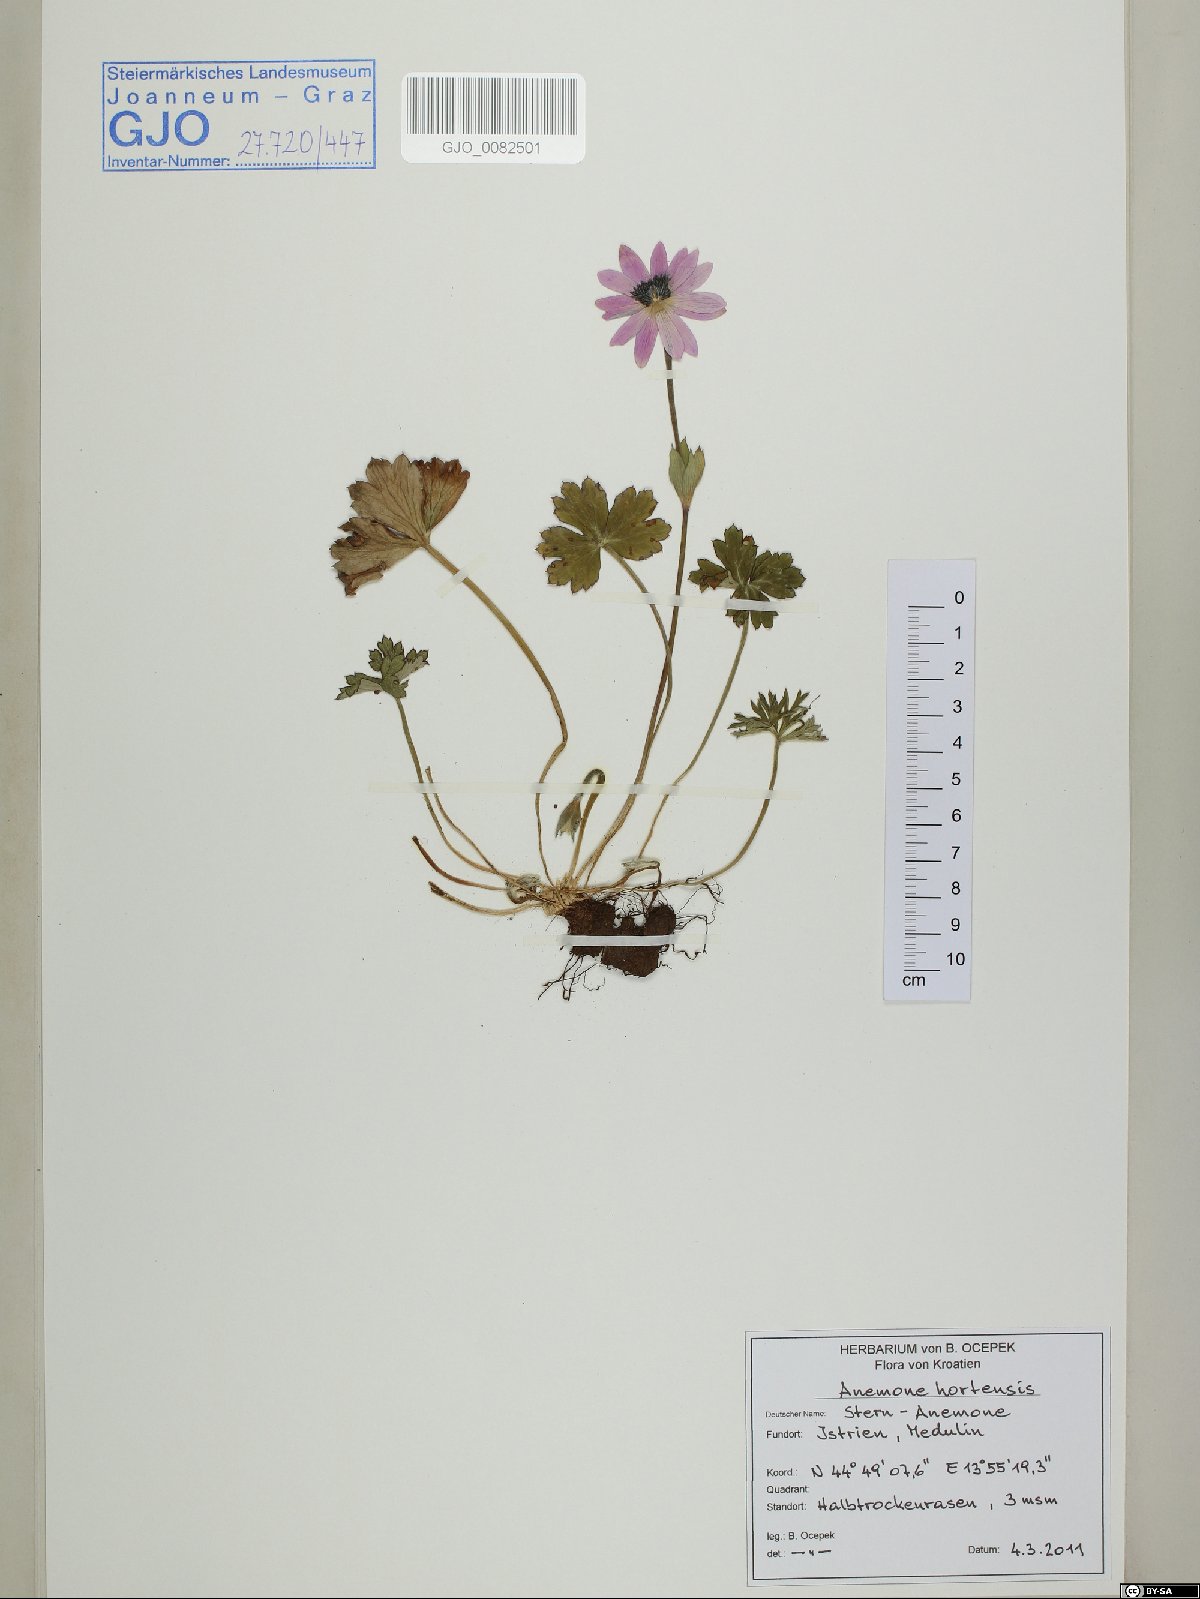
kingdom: Plantae
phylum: Tracheophyta
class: Magnoliopsida
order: Ranunculales
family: Ranunculaceae
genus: Anemone
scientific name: Anemone hortensis
